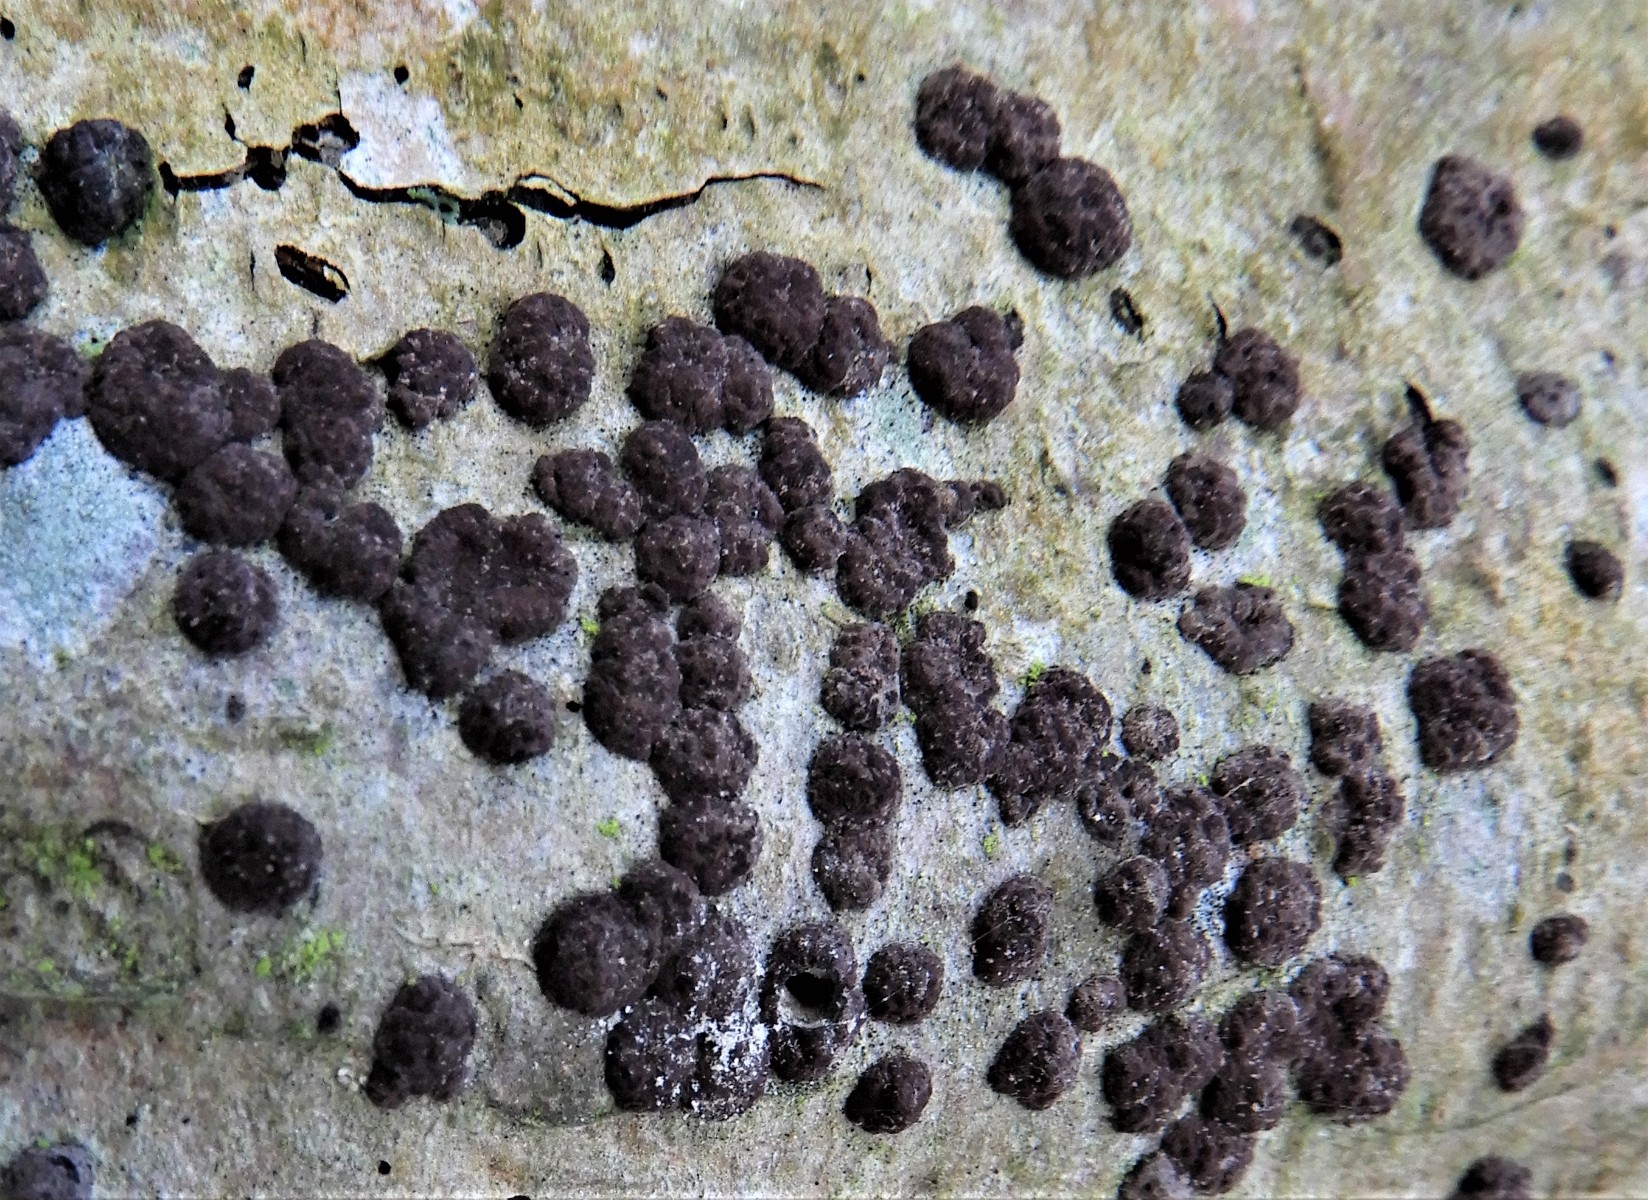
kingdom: Fungi
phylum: Ascomycota
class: Sordariomycetes
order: Xylariales
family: Hypoxylaceae
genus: Hypoxylon
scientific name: Hypoxylon fuscum
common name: kegleformet kulbær
